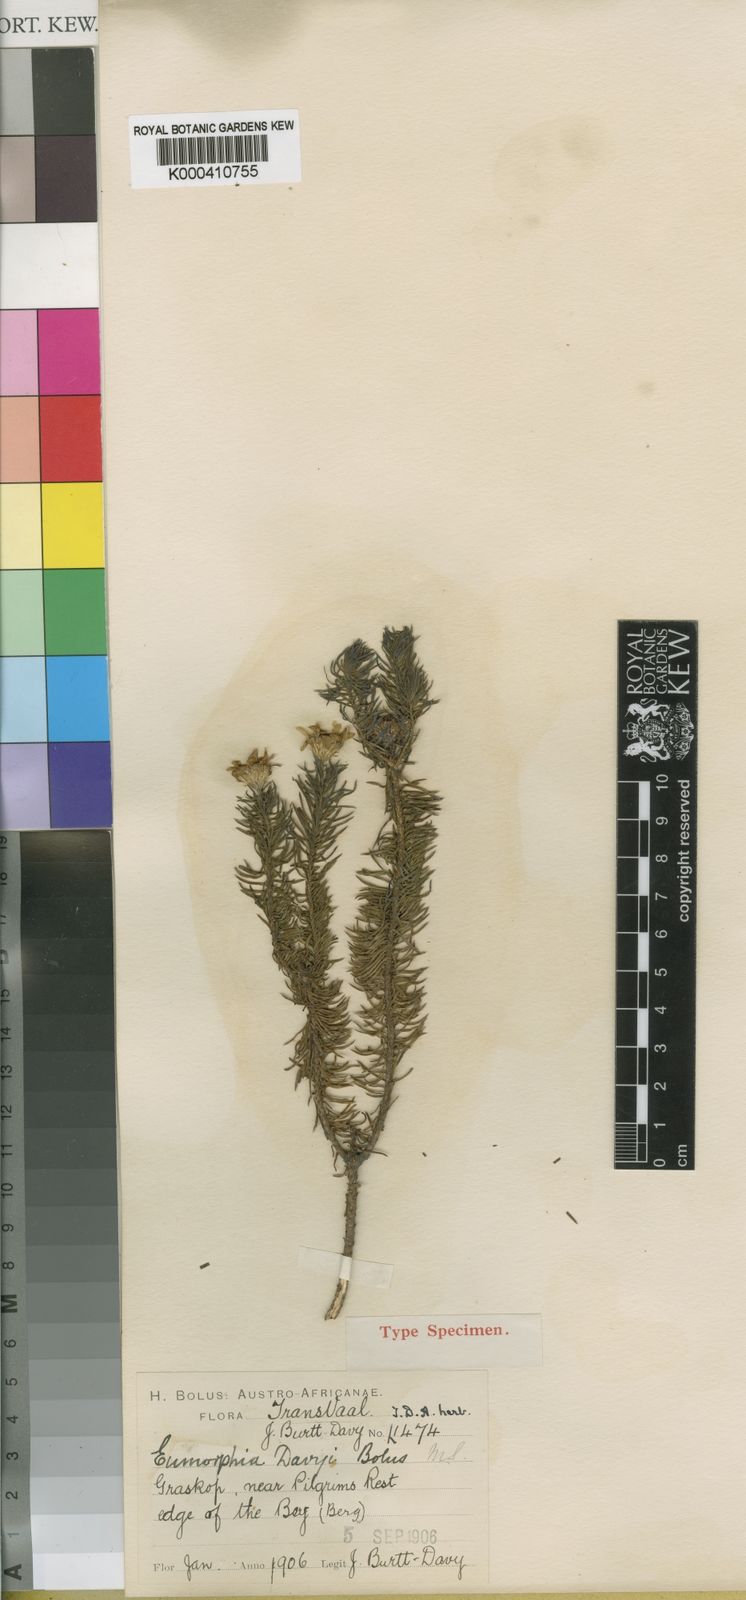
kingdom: Plantae
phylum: Tracheophyta
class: Magnoliopsida
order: Asterales
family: Asteraceae
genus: Eumorphia
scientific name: Eumorphia davyi
